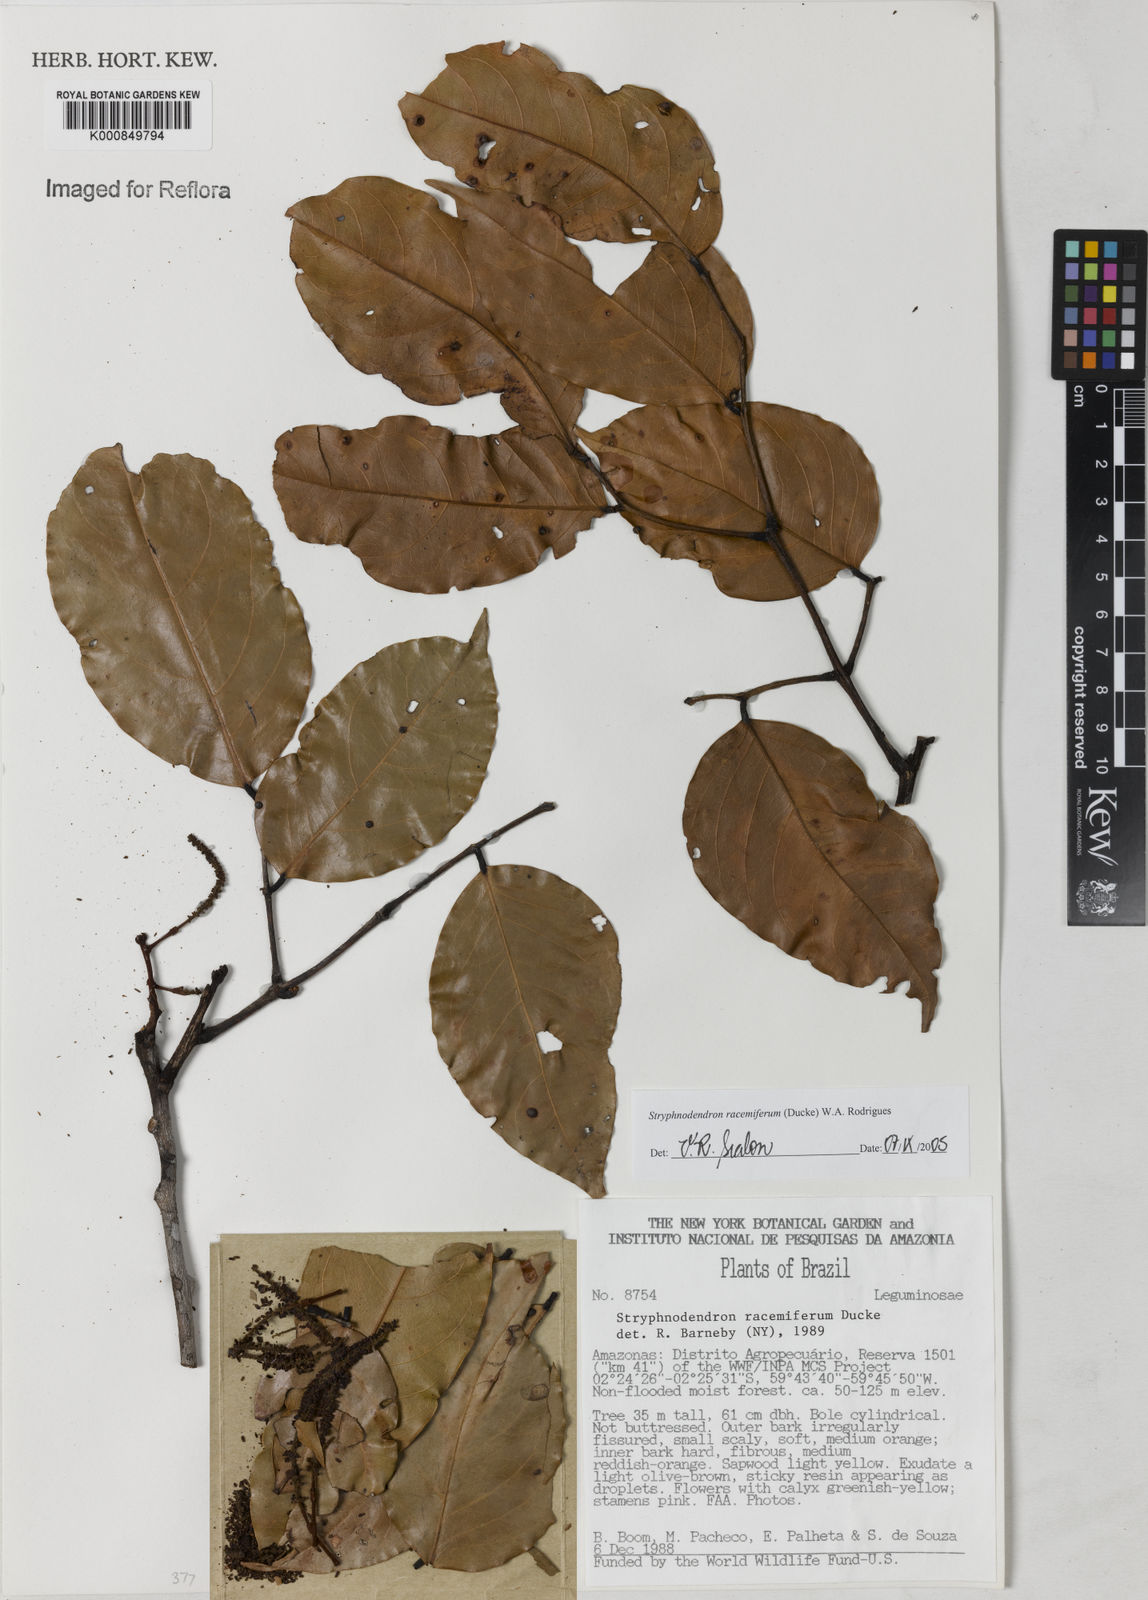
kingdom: Plantae
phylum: Tracheophyta
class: Magnoliopsida
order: Fabales
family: Fabaceae
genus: Stryphnodendron
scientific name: Stryphnodendron
